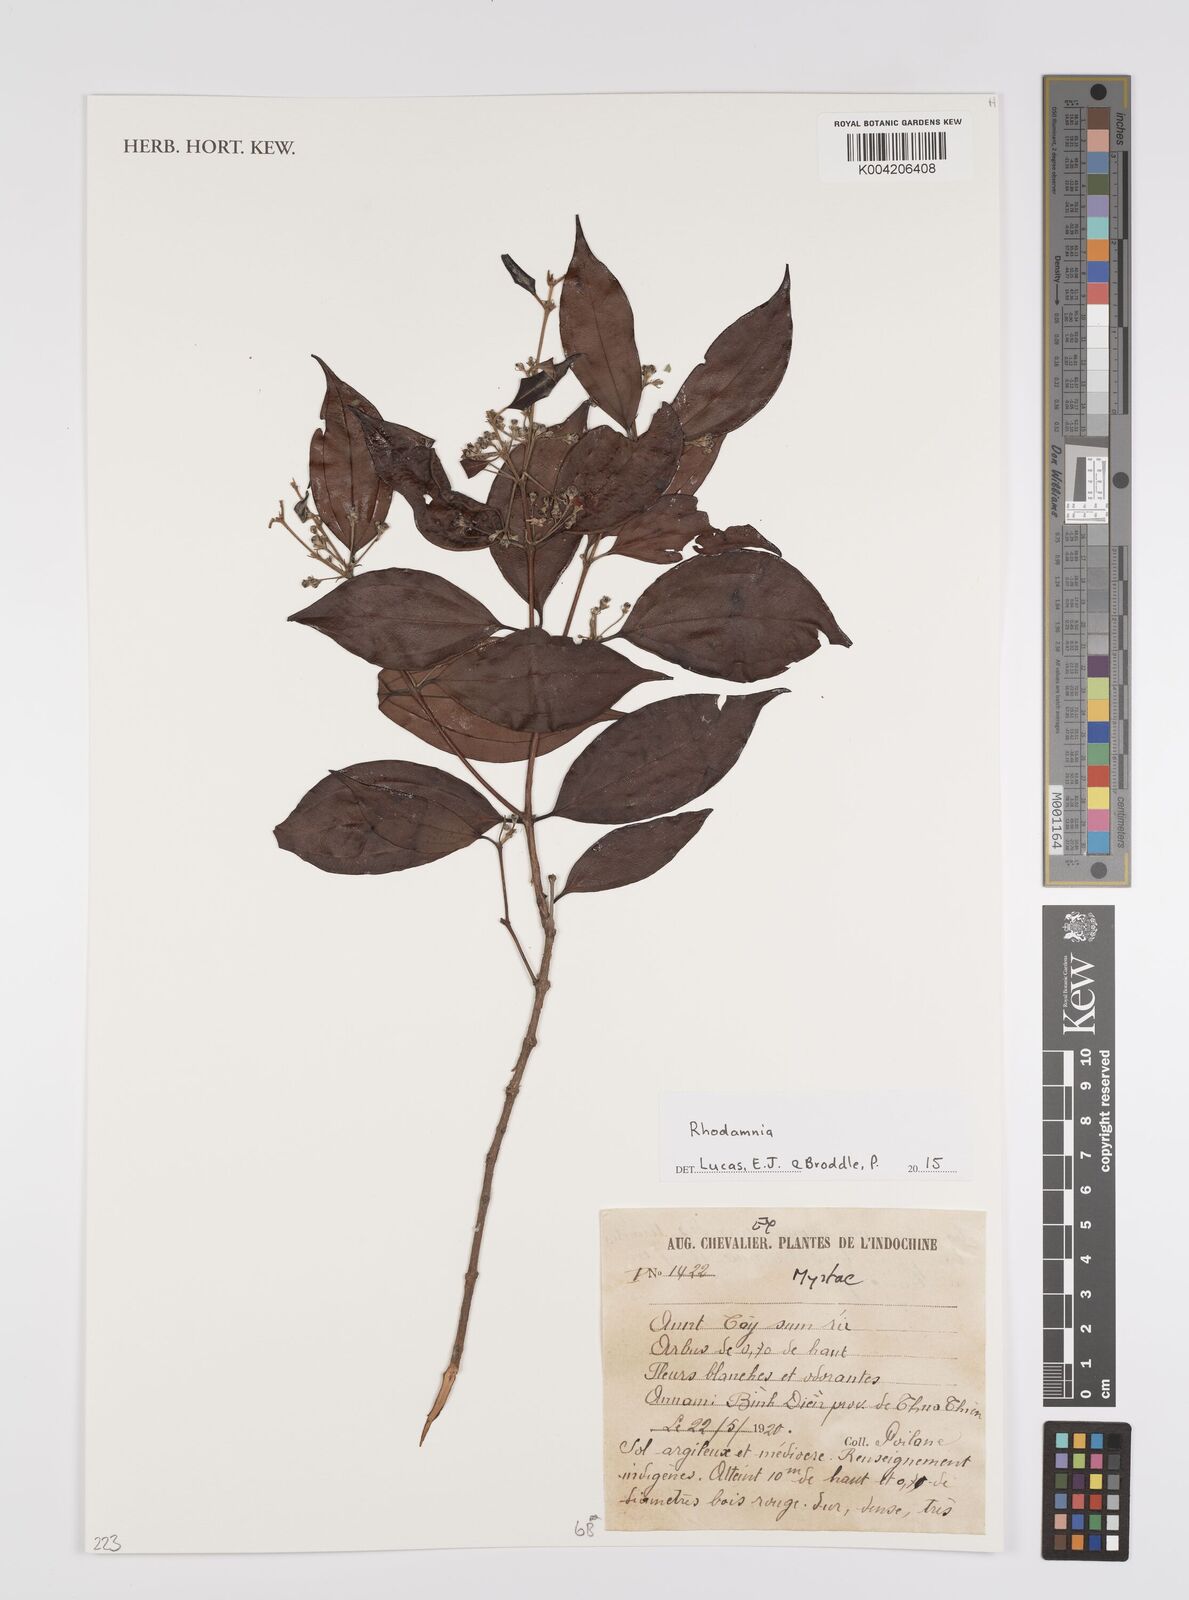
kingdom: Plantae
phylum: Tracheophyta
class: Magnoliopsida
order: Myrtales
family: Myrtaceae
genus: Rhodamnia
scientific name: Rhodamnia
